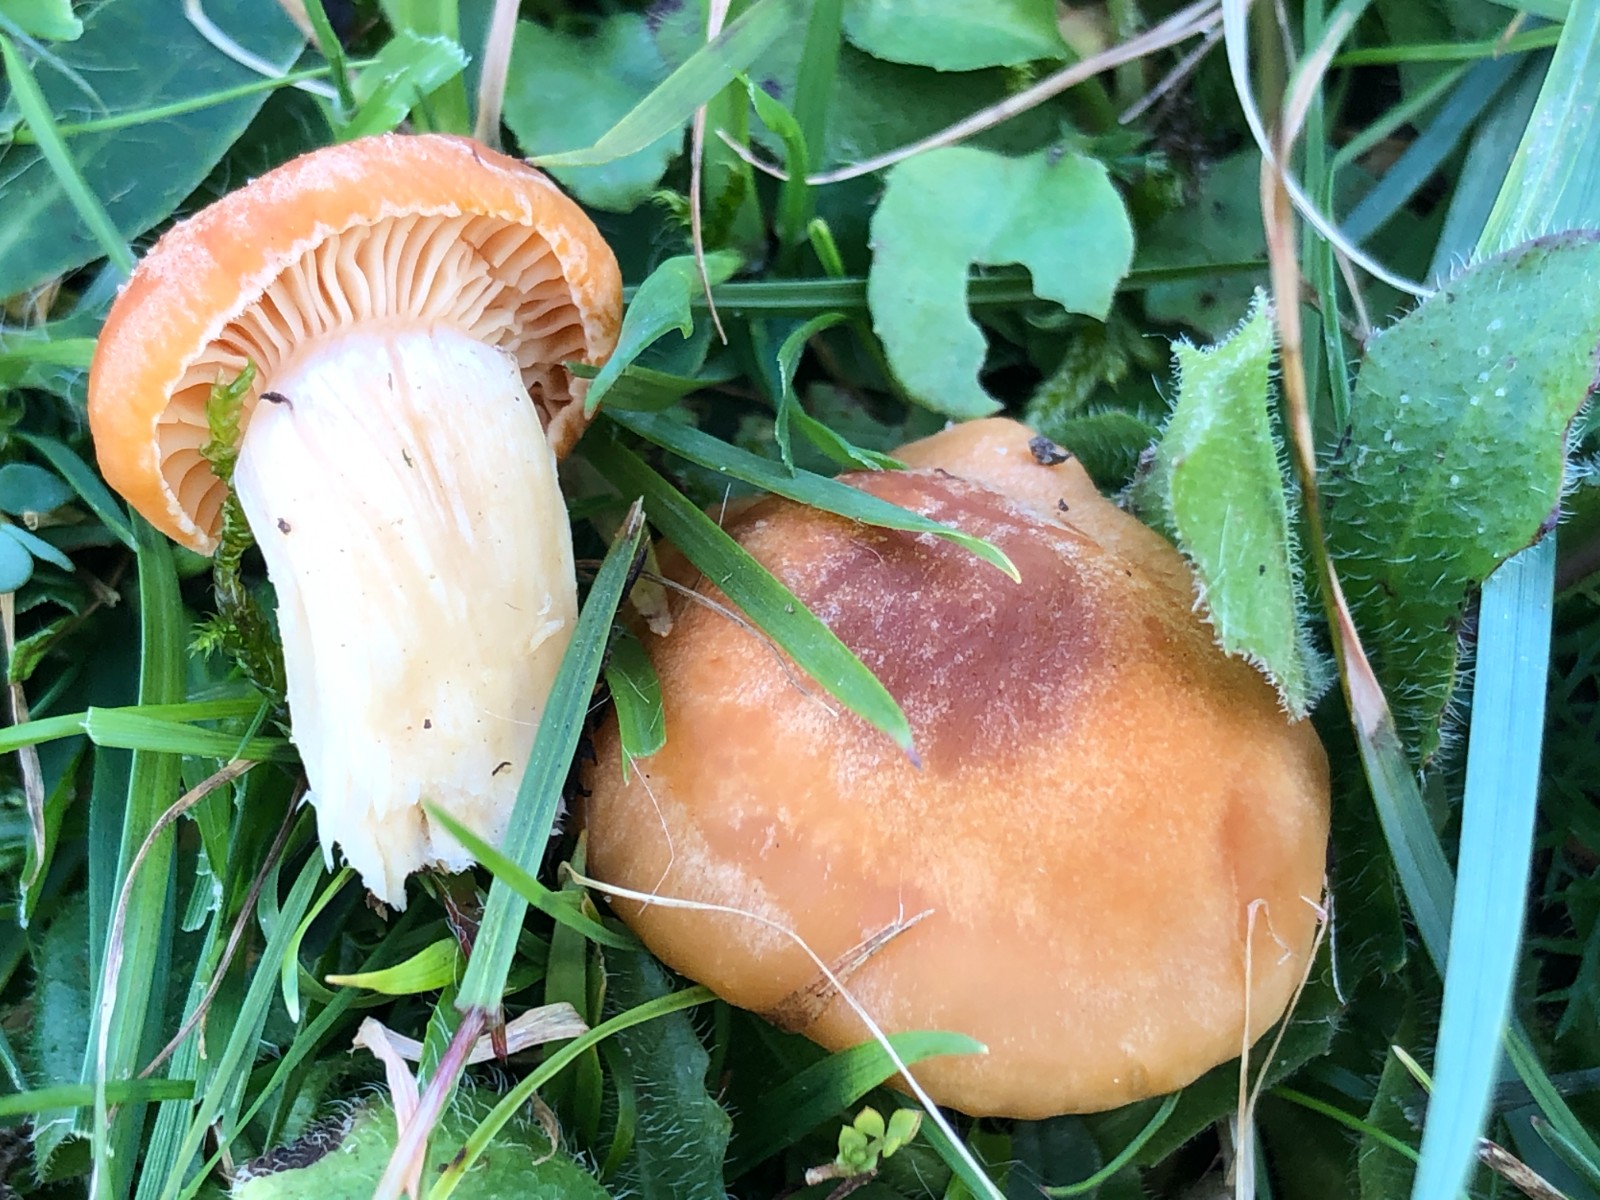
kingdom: Fungi
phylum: Basidiomycota
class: Agaricomycetes
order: Agaricales
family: Hygrophoraceae
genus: Cuphophyllus
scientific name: Cuphophyllus pratensis
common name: eng-vokshat
